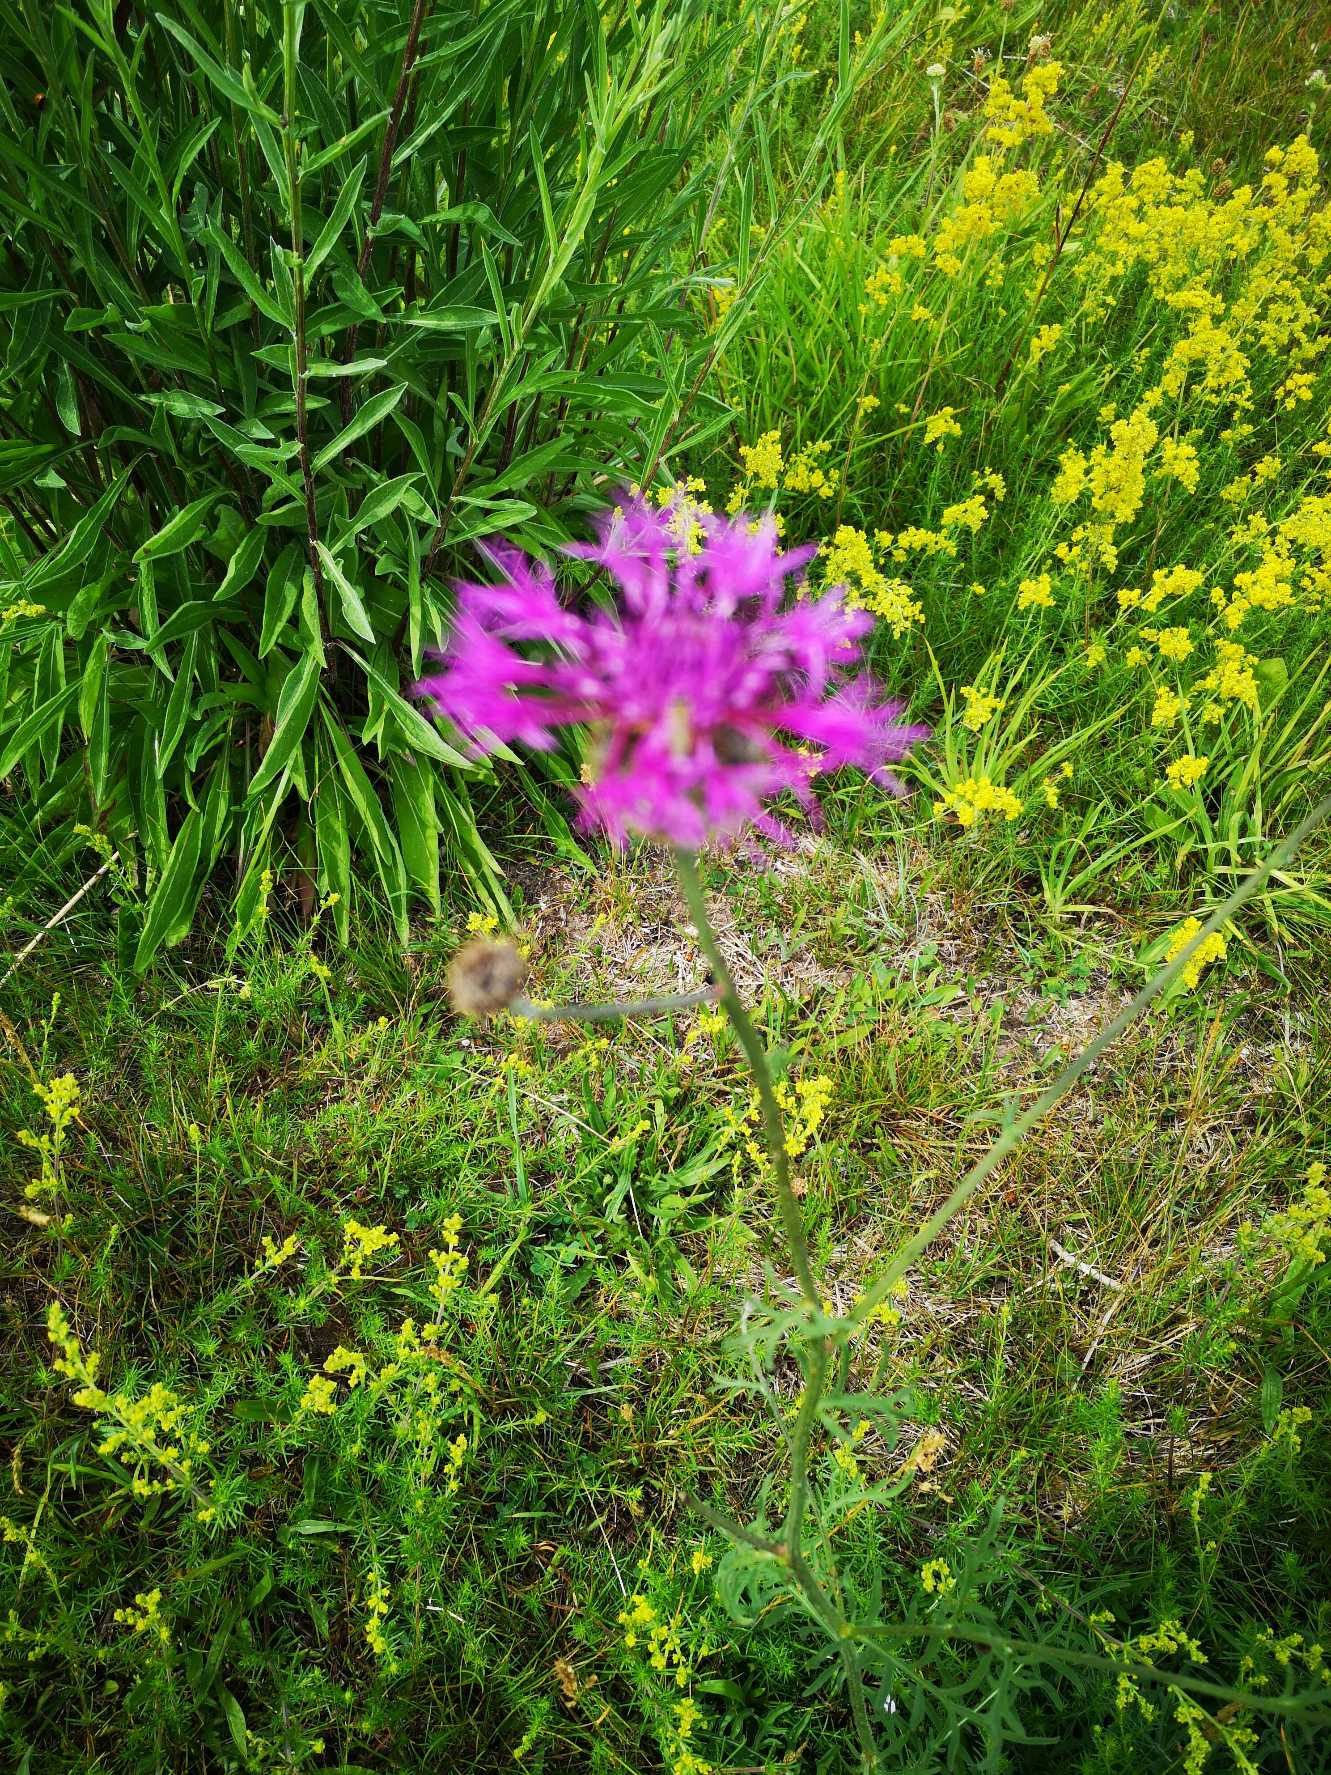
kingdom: Plantae
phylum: Tracheophyta
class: Magnoliopsida
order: Asterales
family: Asteraceae
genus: Centaurea
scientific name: Centaurea scabiosa
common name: Stor knopurt
